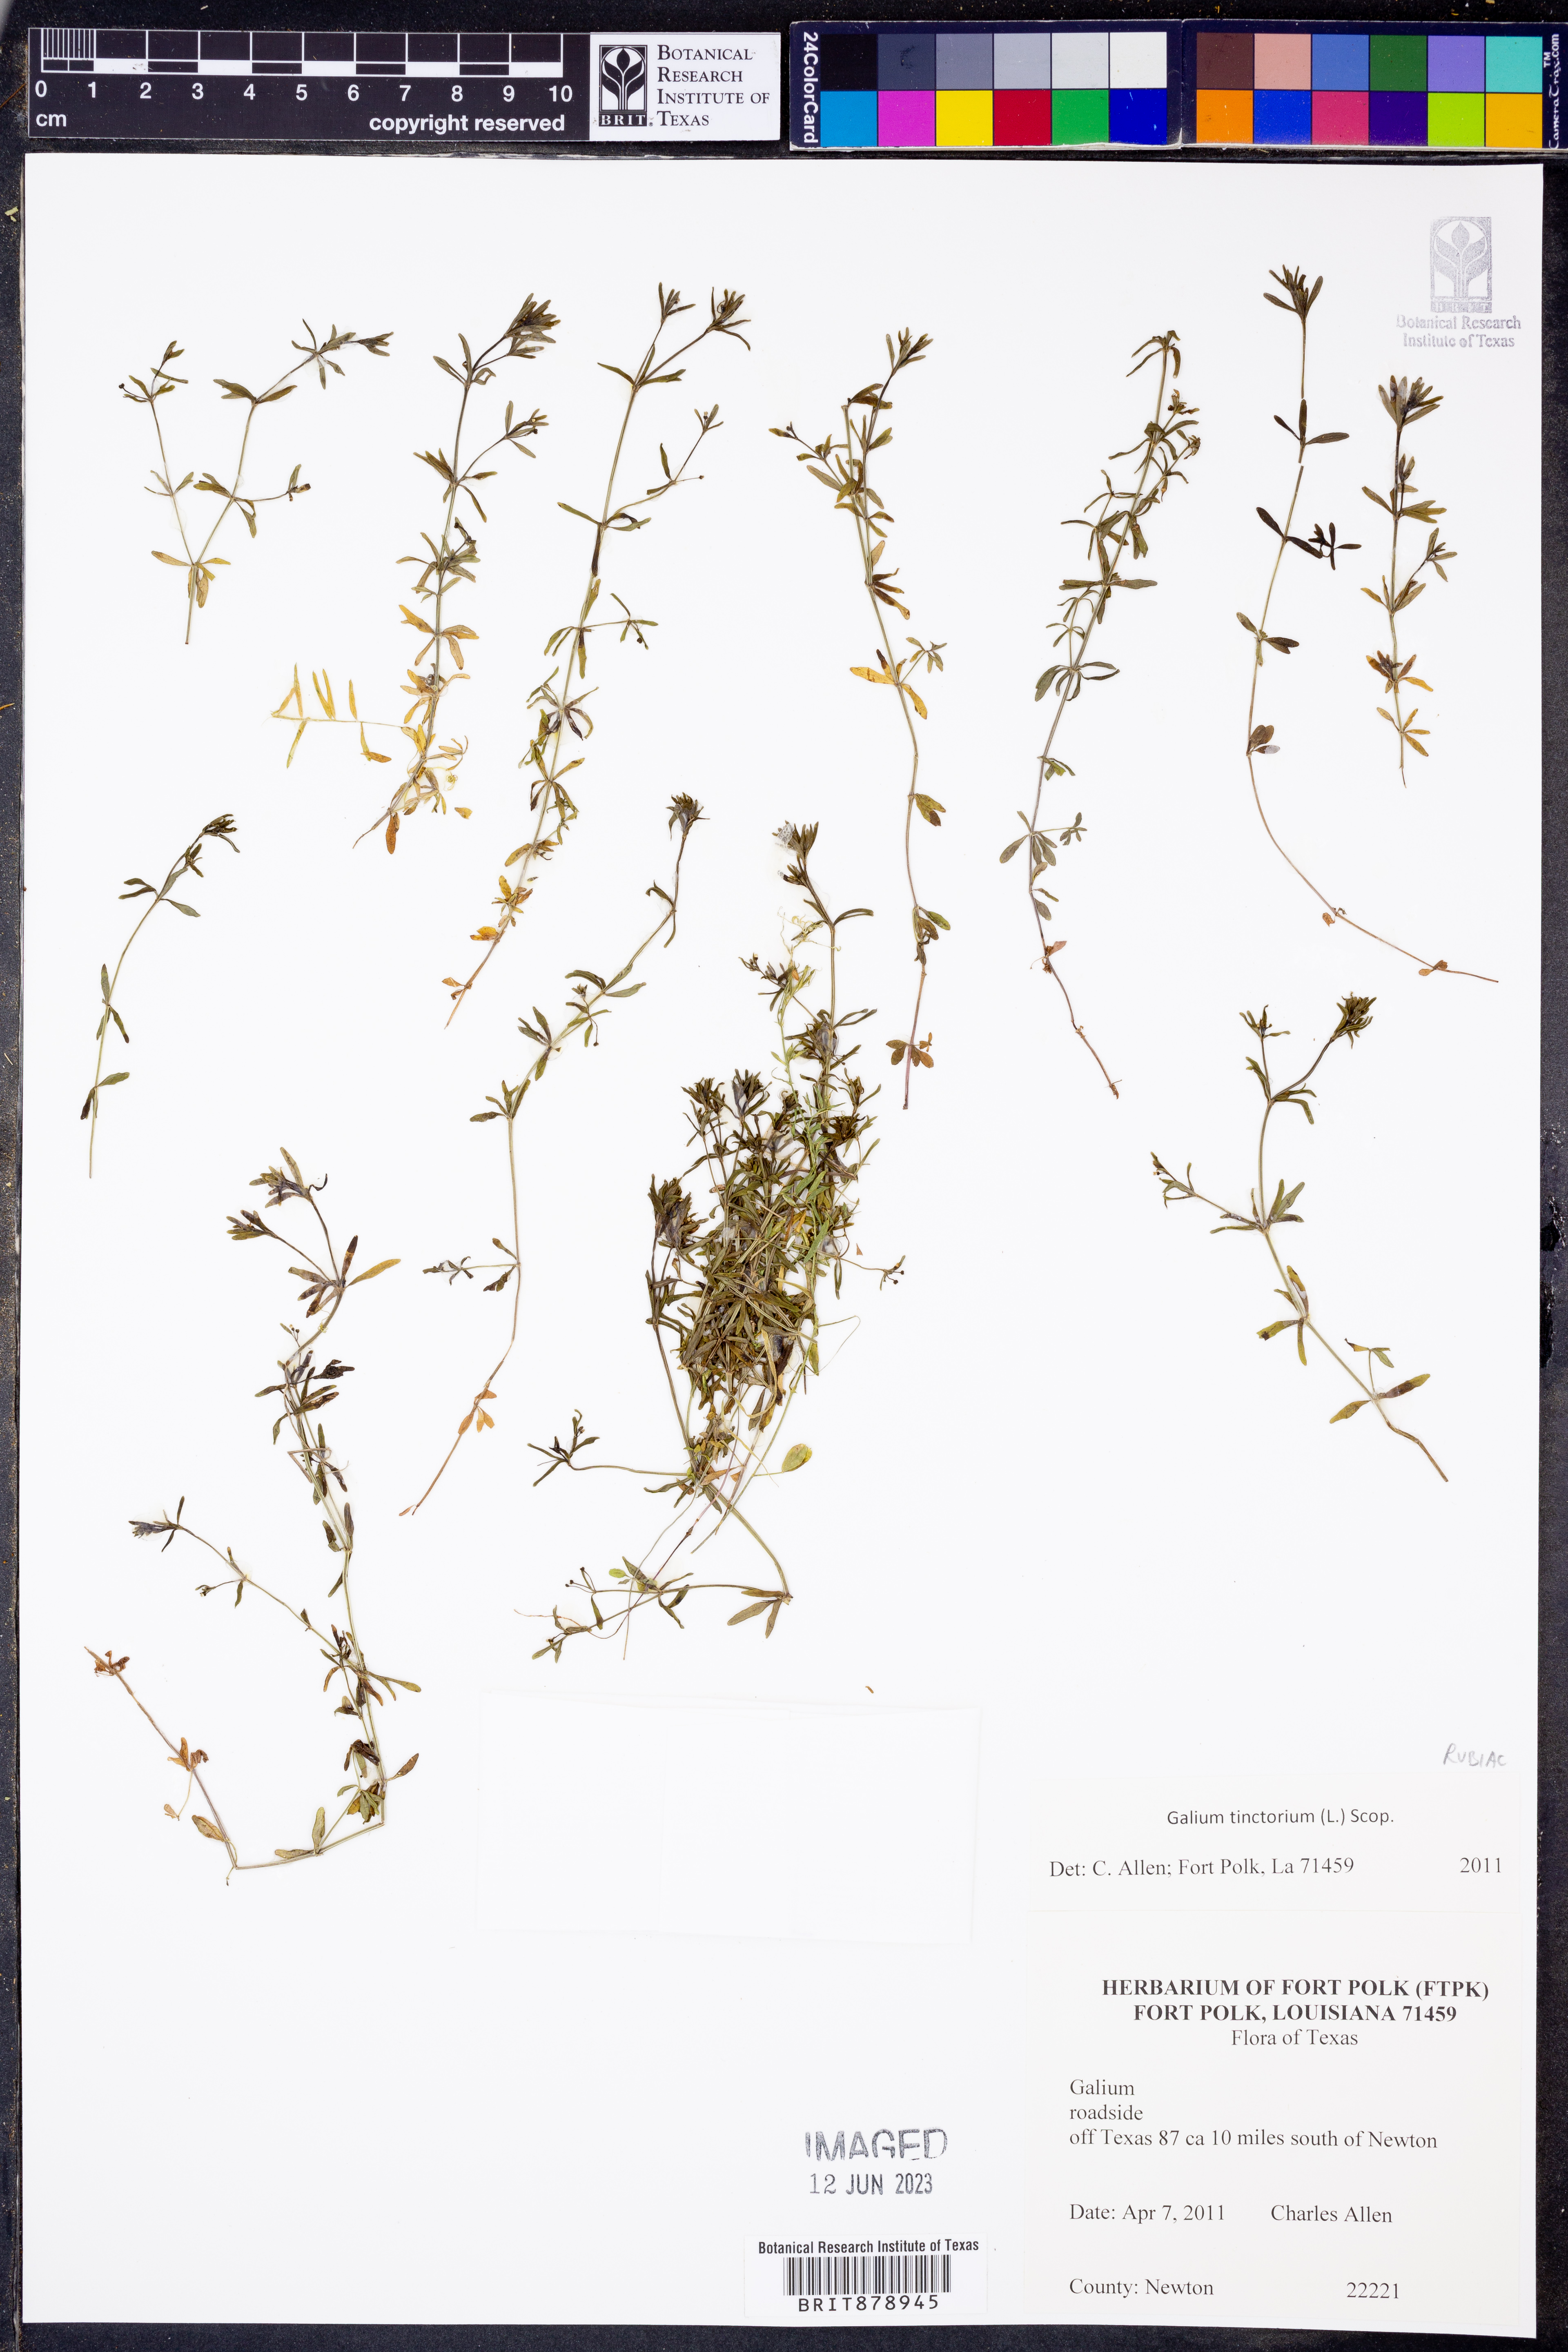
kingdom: Plantae
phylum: Tracheophyta
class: Magnoliopsida
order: Gentianales
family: Rubiaceae
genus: Asperula
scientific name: Asperula tinctoria
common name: Dyer's woodruff
